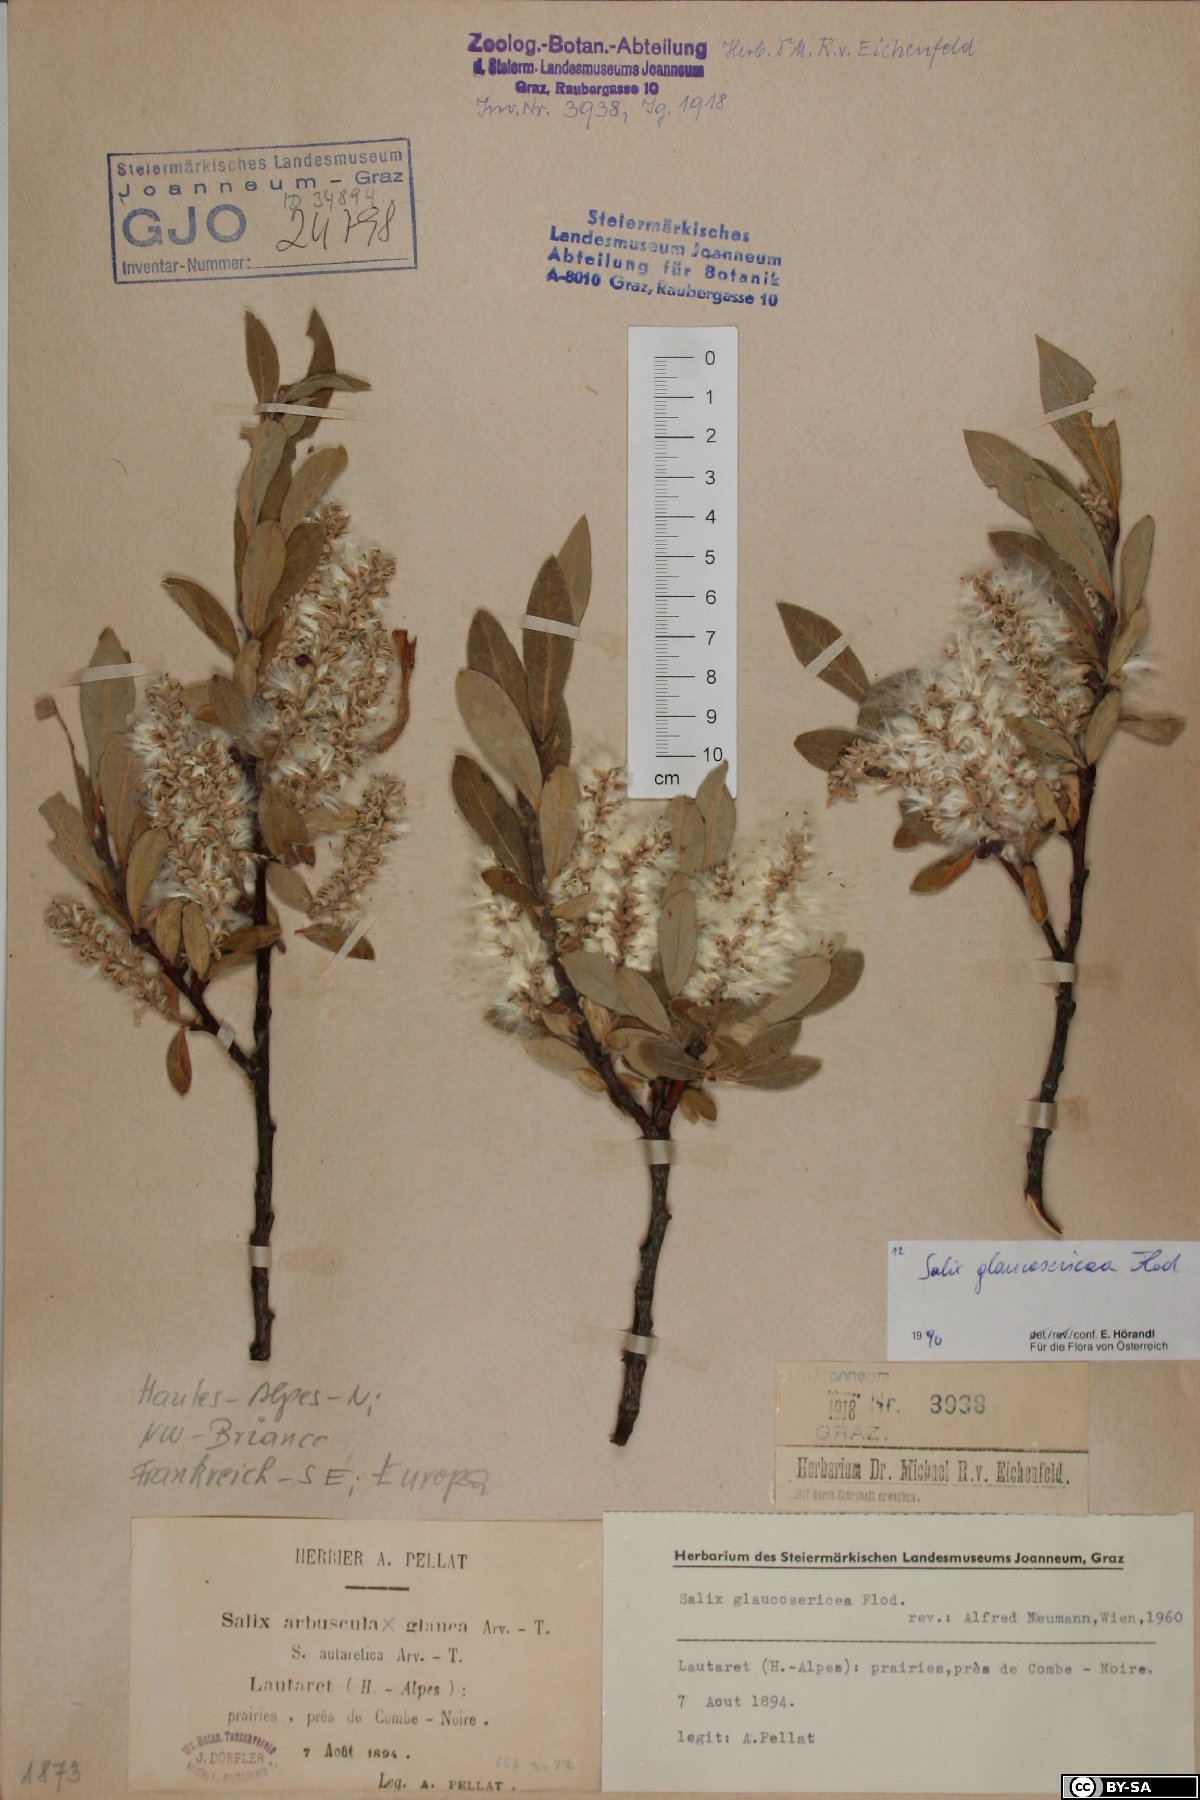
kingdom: Plantae
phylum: Tracheophyta
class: Magnoliopsida
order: Malpighiales
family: Salicaceae
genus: Salix
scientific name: Salix glaucosericea
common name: Alpine gray willow
